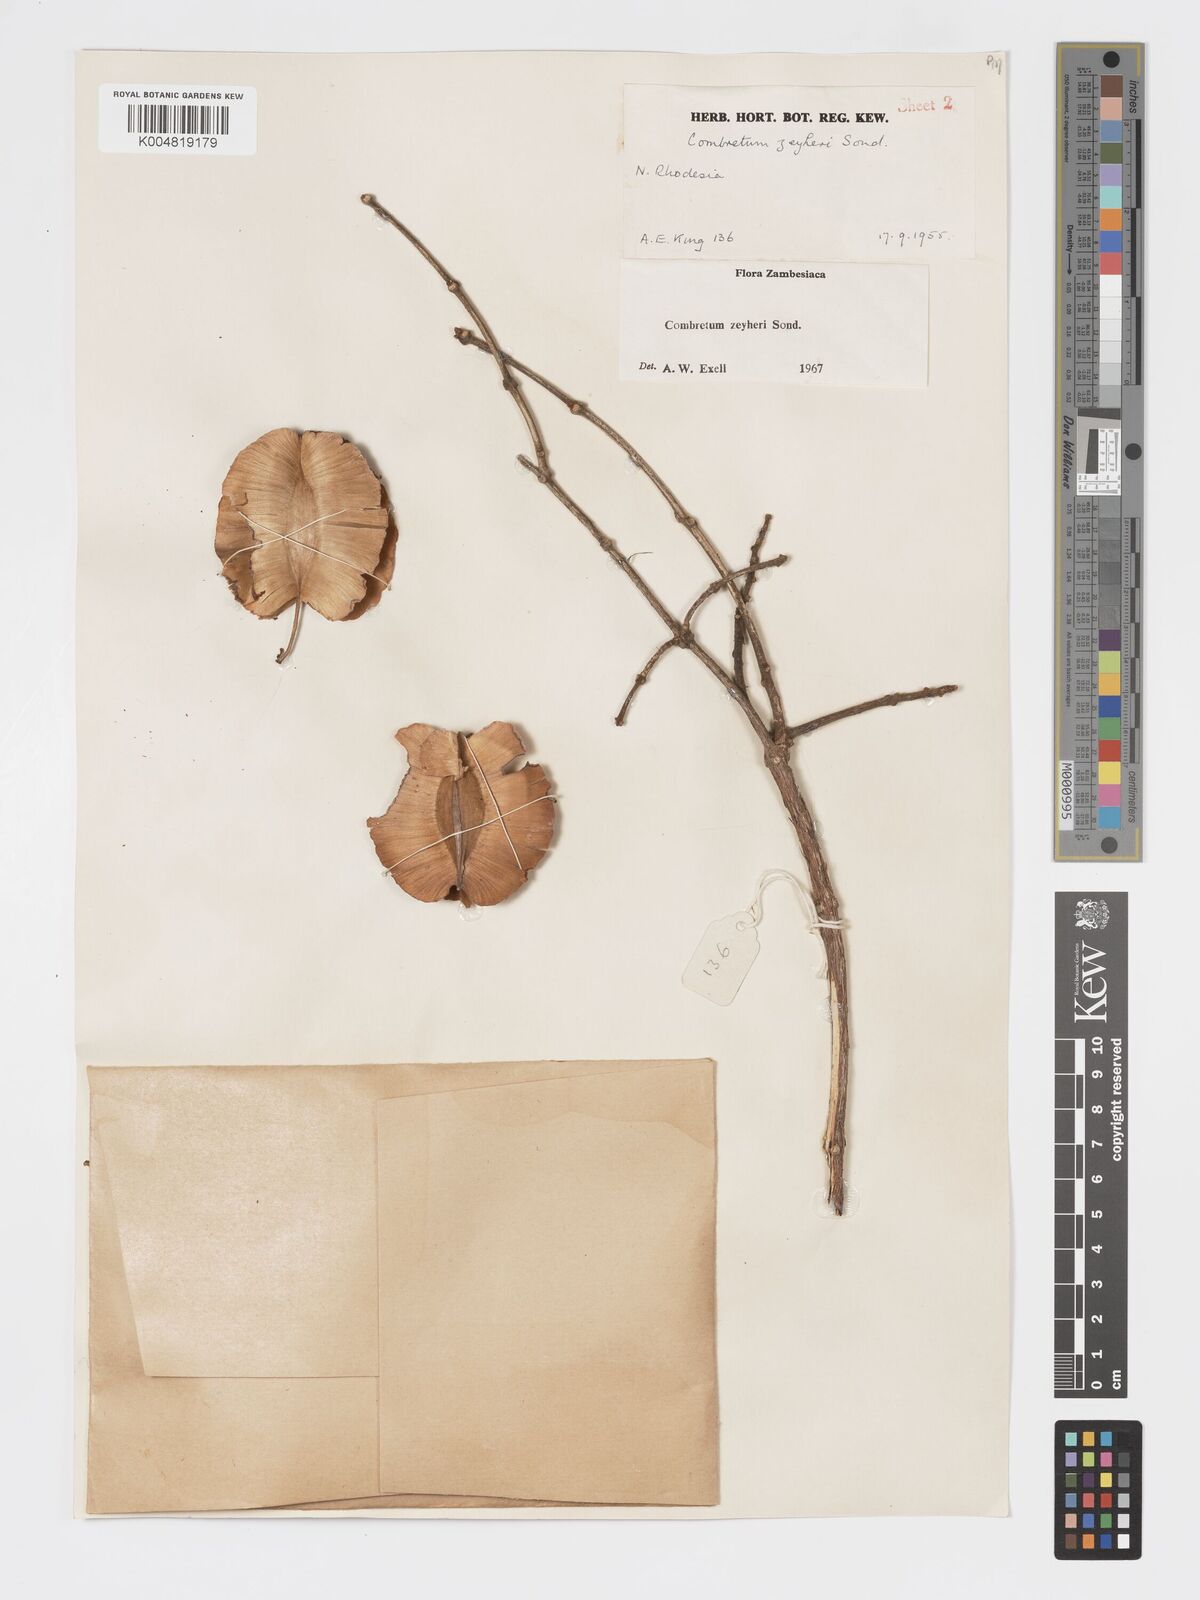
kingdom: Plantae
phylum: Tracheophyta
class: Magnoliopsida
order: Myrtales
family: Combretaceae
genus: Combretum
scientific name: Combretum zeyheri
